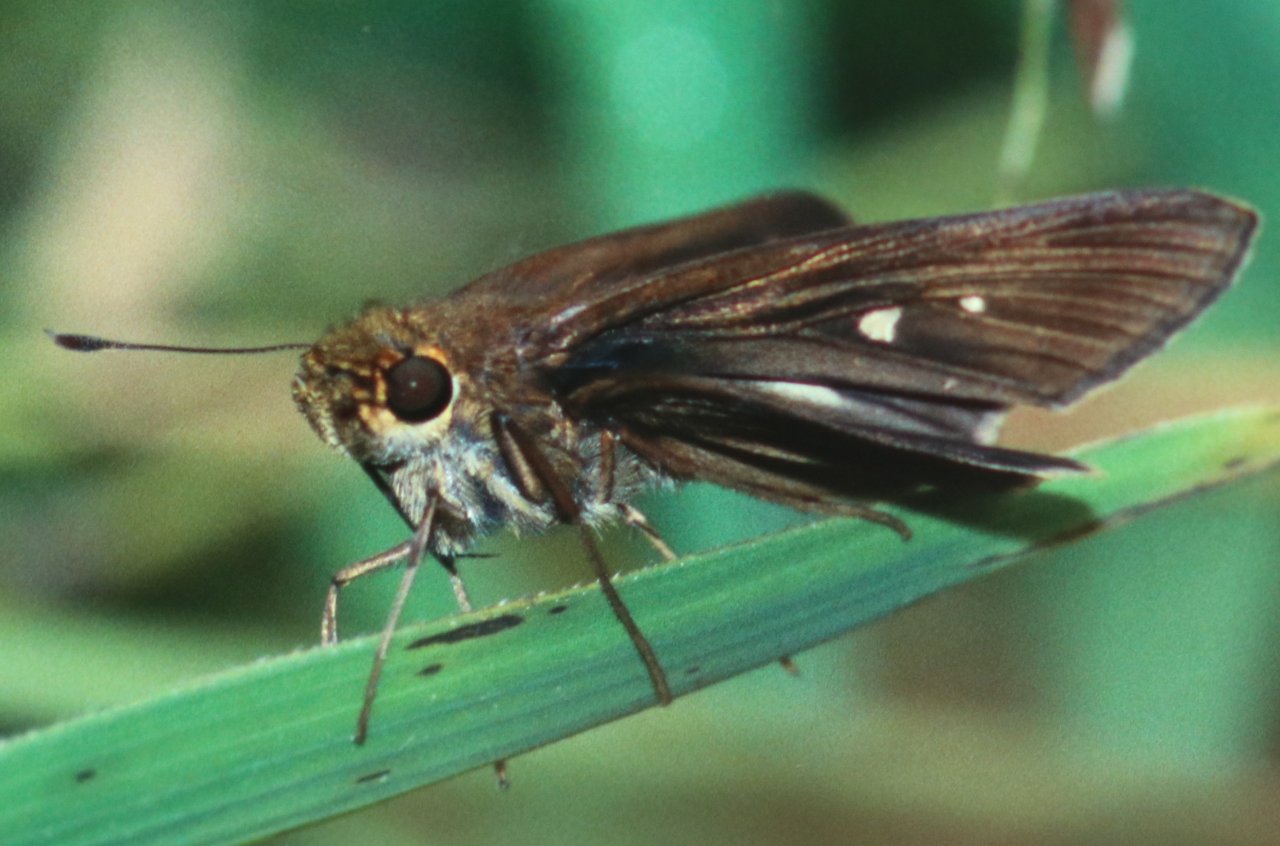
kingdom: Animalia
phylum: Arthropoda
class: Insecta
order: Lepidoptera
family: Hesperiidae
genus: Panoquina
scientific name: Panoquina ocola
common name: Ocola Skipper
